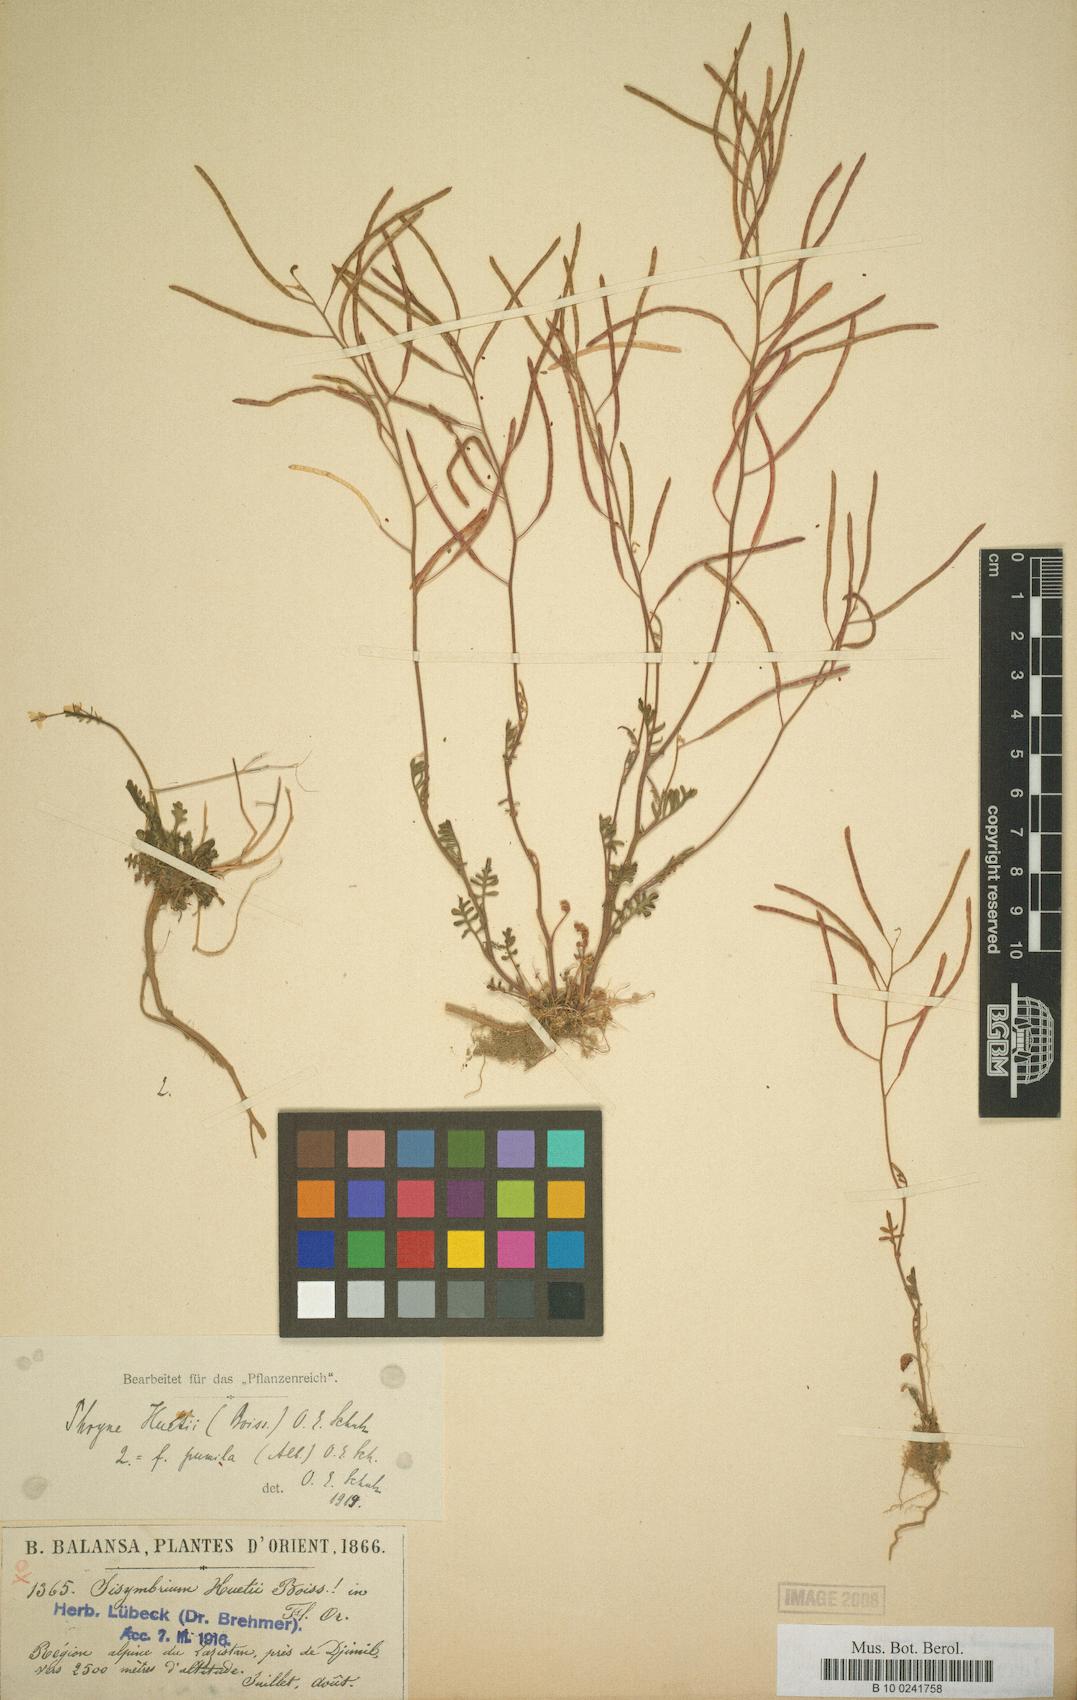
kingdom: Plantae
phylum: Tracheophyta
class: Magnoliopsida
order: Brassicales
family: Brassicaceae
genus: Murbeckiella
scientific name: Murbeckiella huetii
